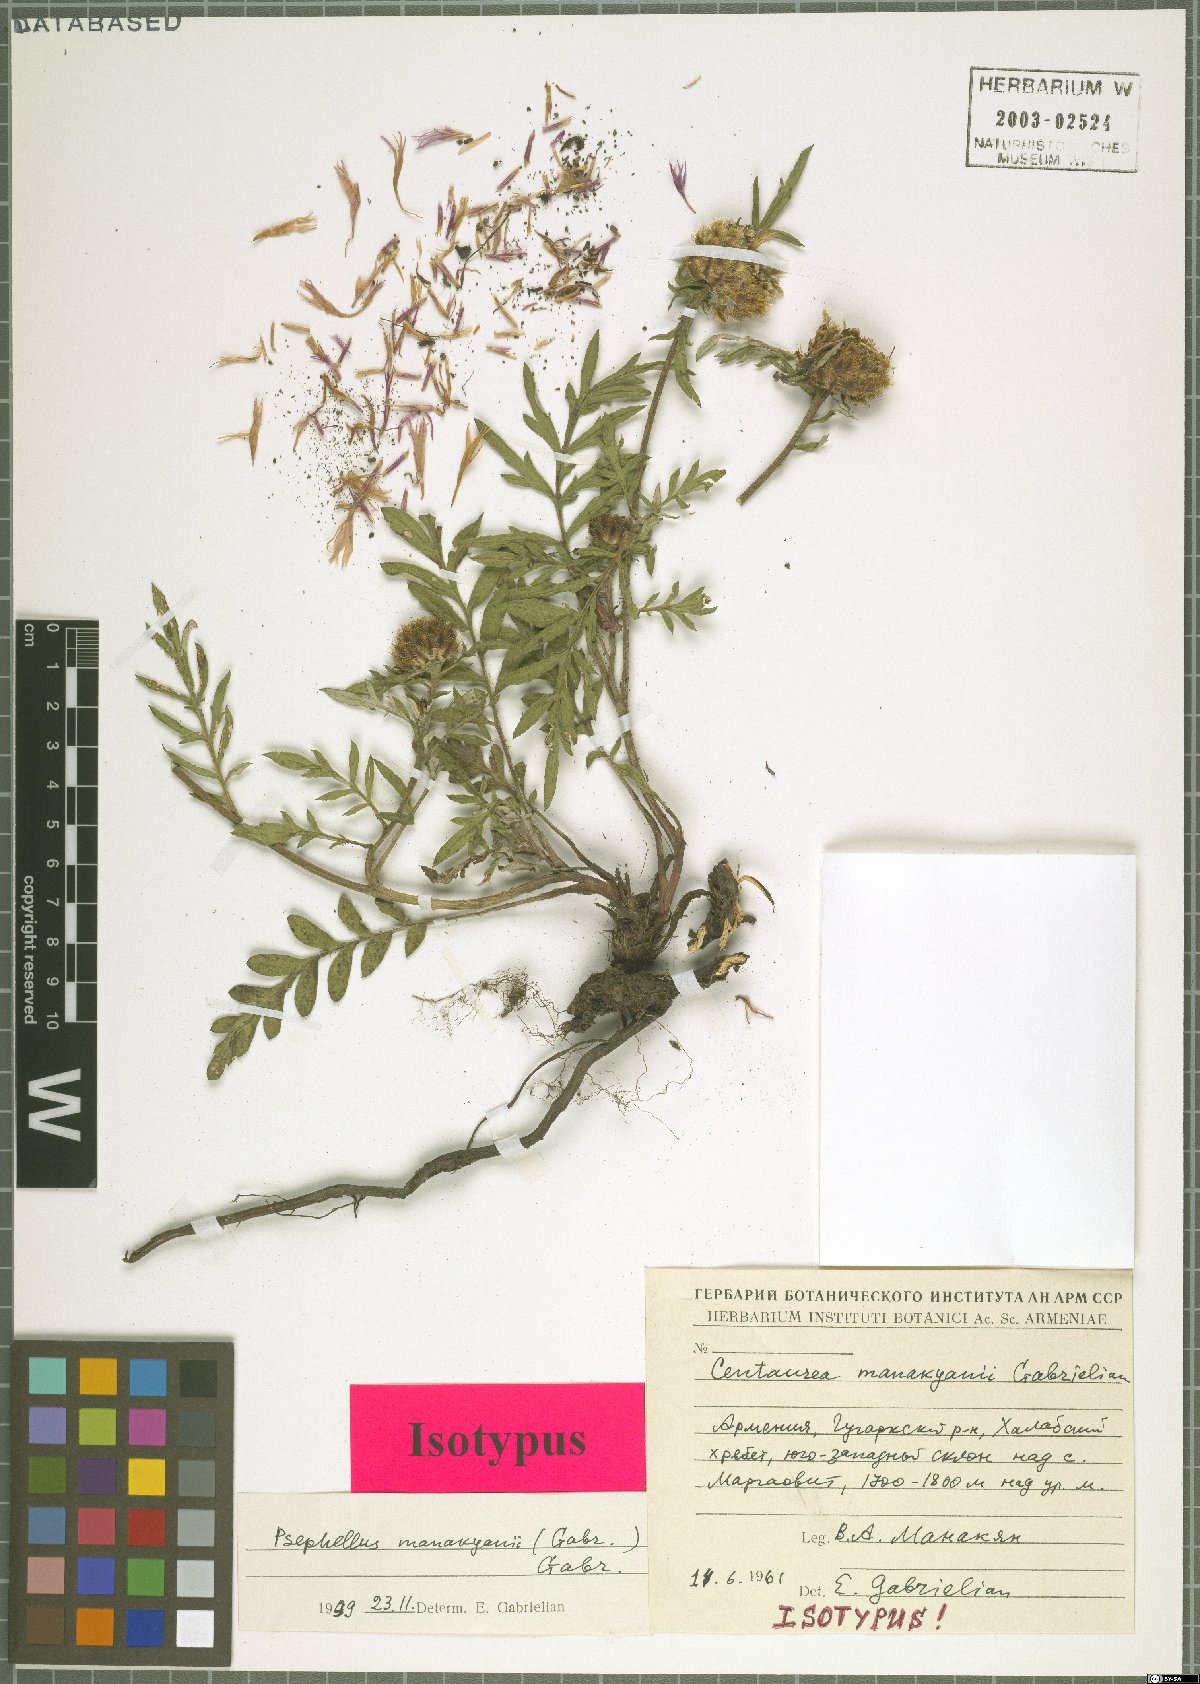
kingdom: Plantae
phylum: Tracheophyta
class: Magnoliopsida
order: Asterales
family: Asteraceae
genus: Psephellus
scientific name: Psephellus manakianii
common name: Manakyan's cornflower
